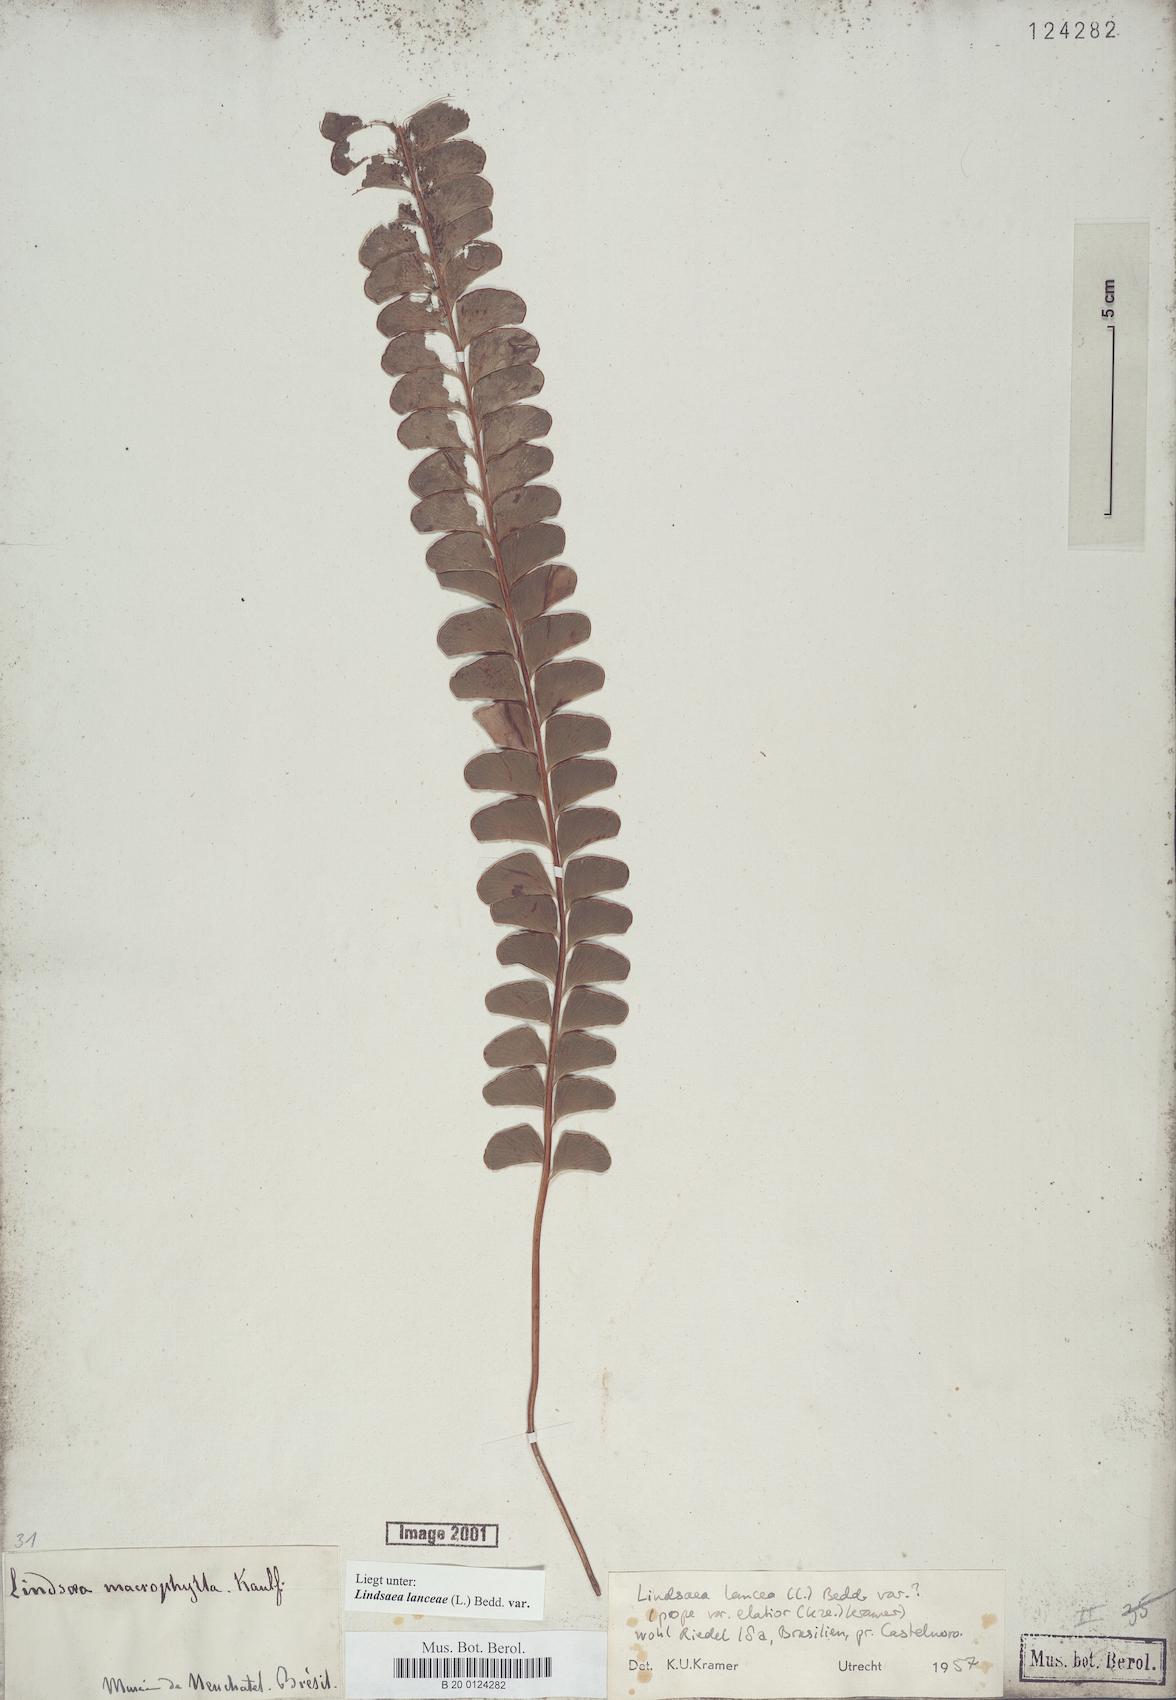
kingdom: Plantae
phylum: Tracheophyta
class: Polypodiopsida
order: Polypodiales
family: Lindsaeaceae
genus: Lindsaea
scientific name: Lindsaea lancea
